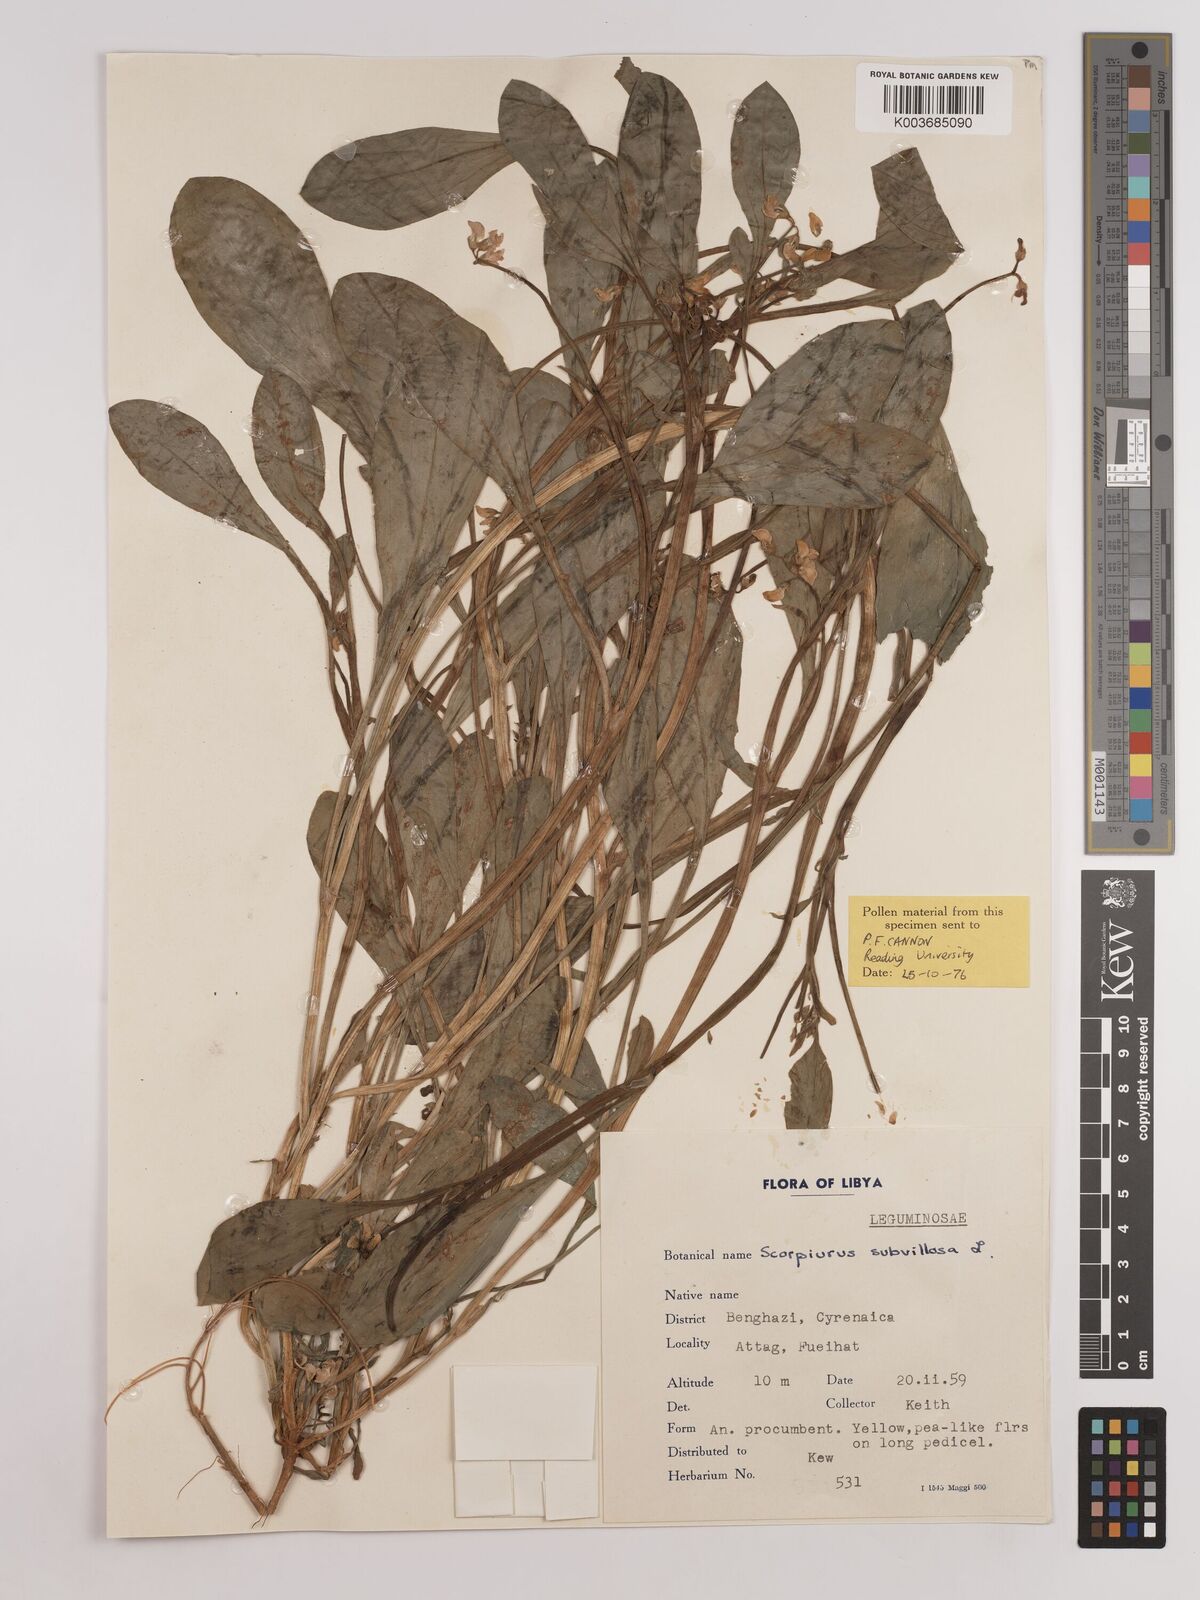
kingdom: Plantae
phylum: Tracheophyta
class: Magnoliopsida
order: Fabales
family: Fabaceae
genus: Scorpiurus
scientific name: Scorpiurus muricatus
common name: Caterpillar-plant
